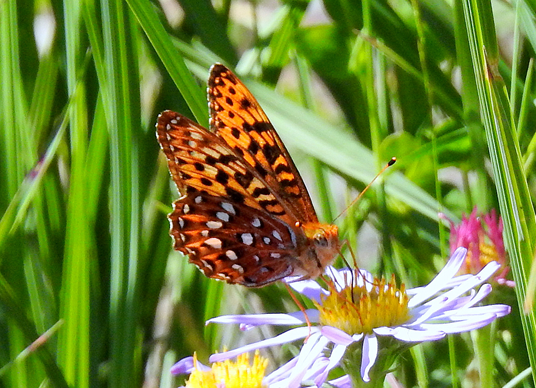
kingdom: Animalia
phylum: Arthropoda
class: Insecta
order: Lepidoptera
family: Nymphalidae
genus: Speyeria
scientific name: Speyeria hydaspe
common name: Hydaspe Fritillary
